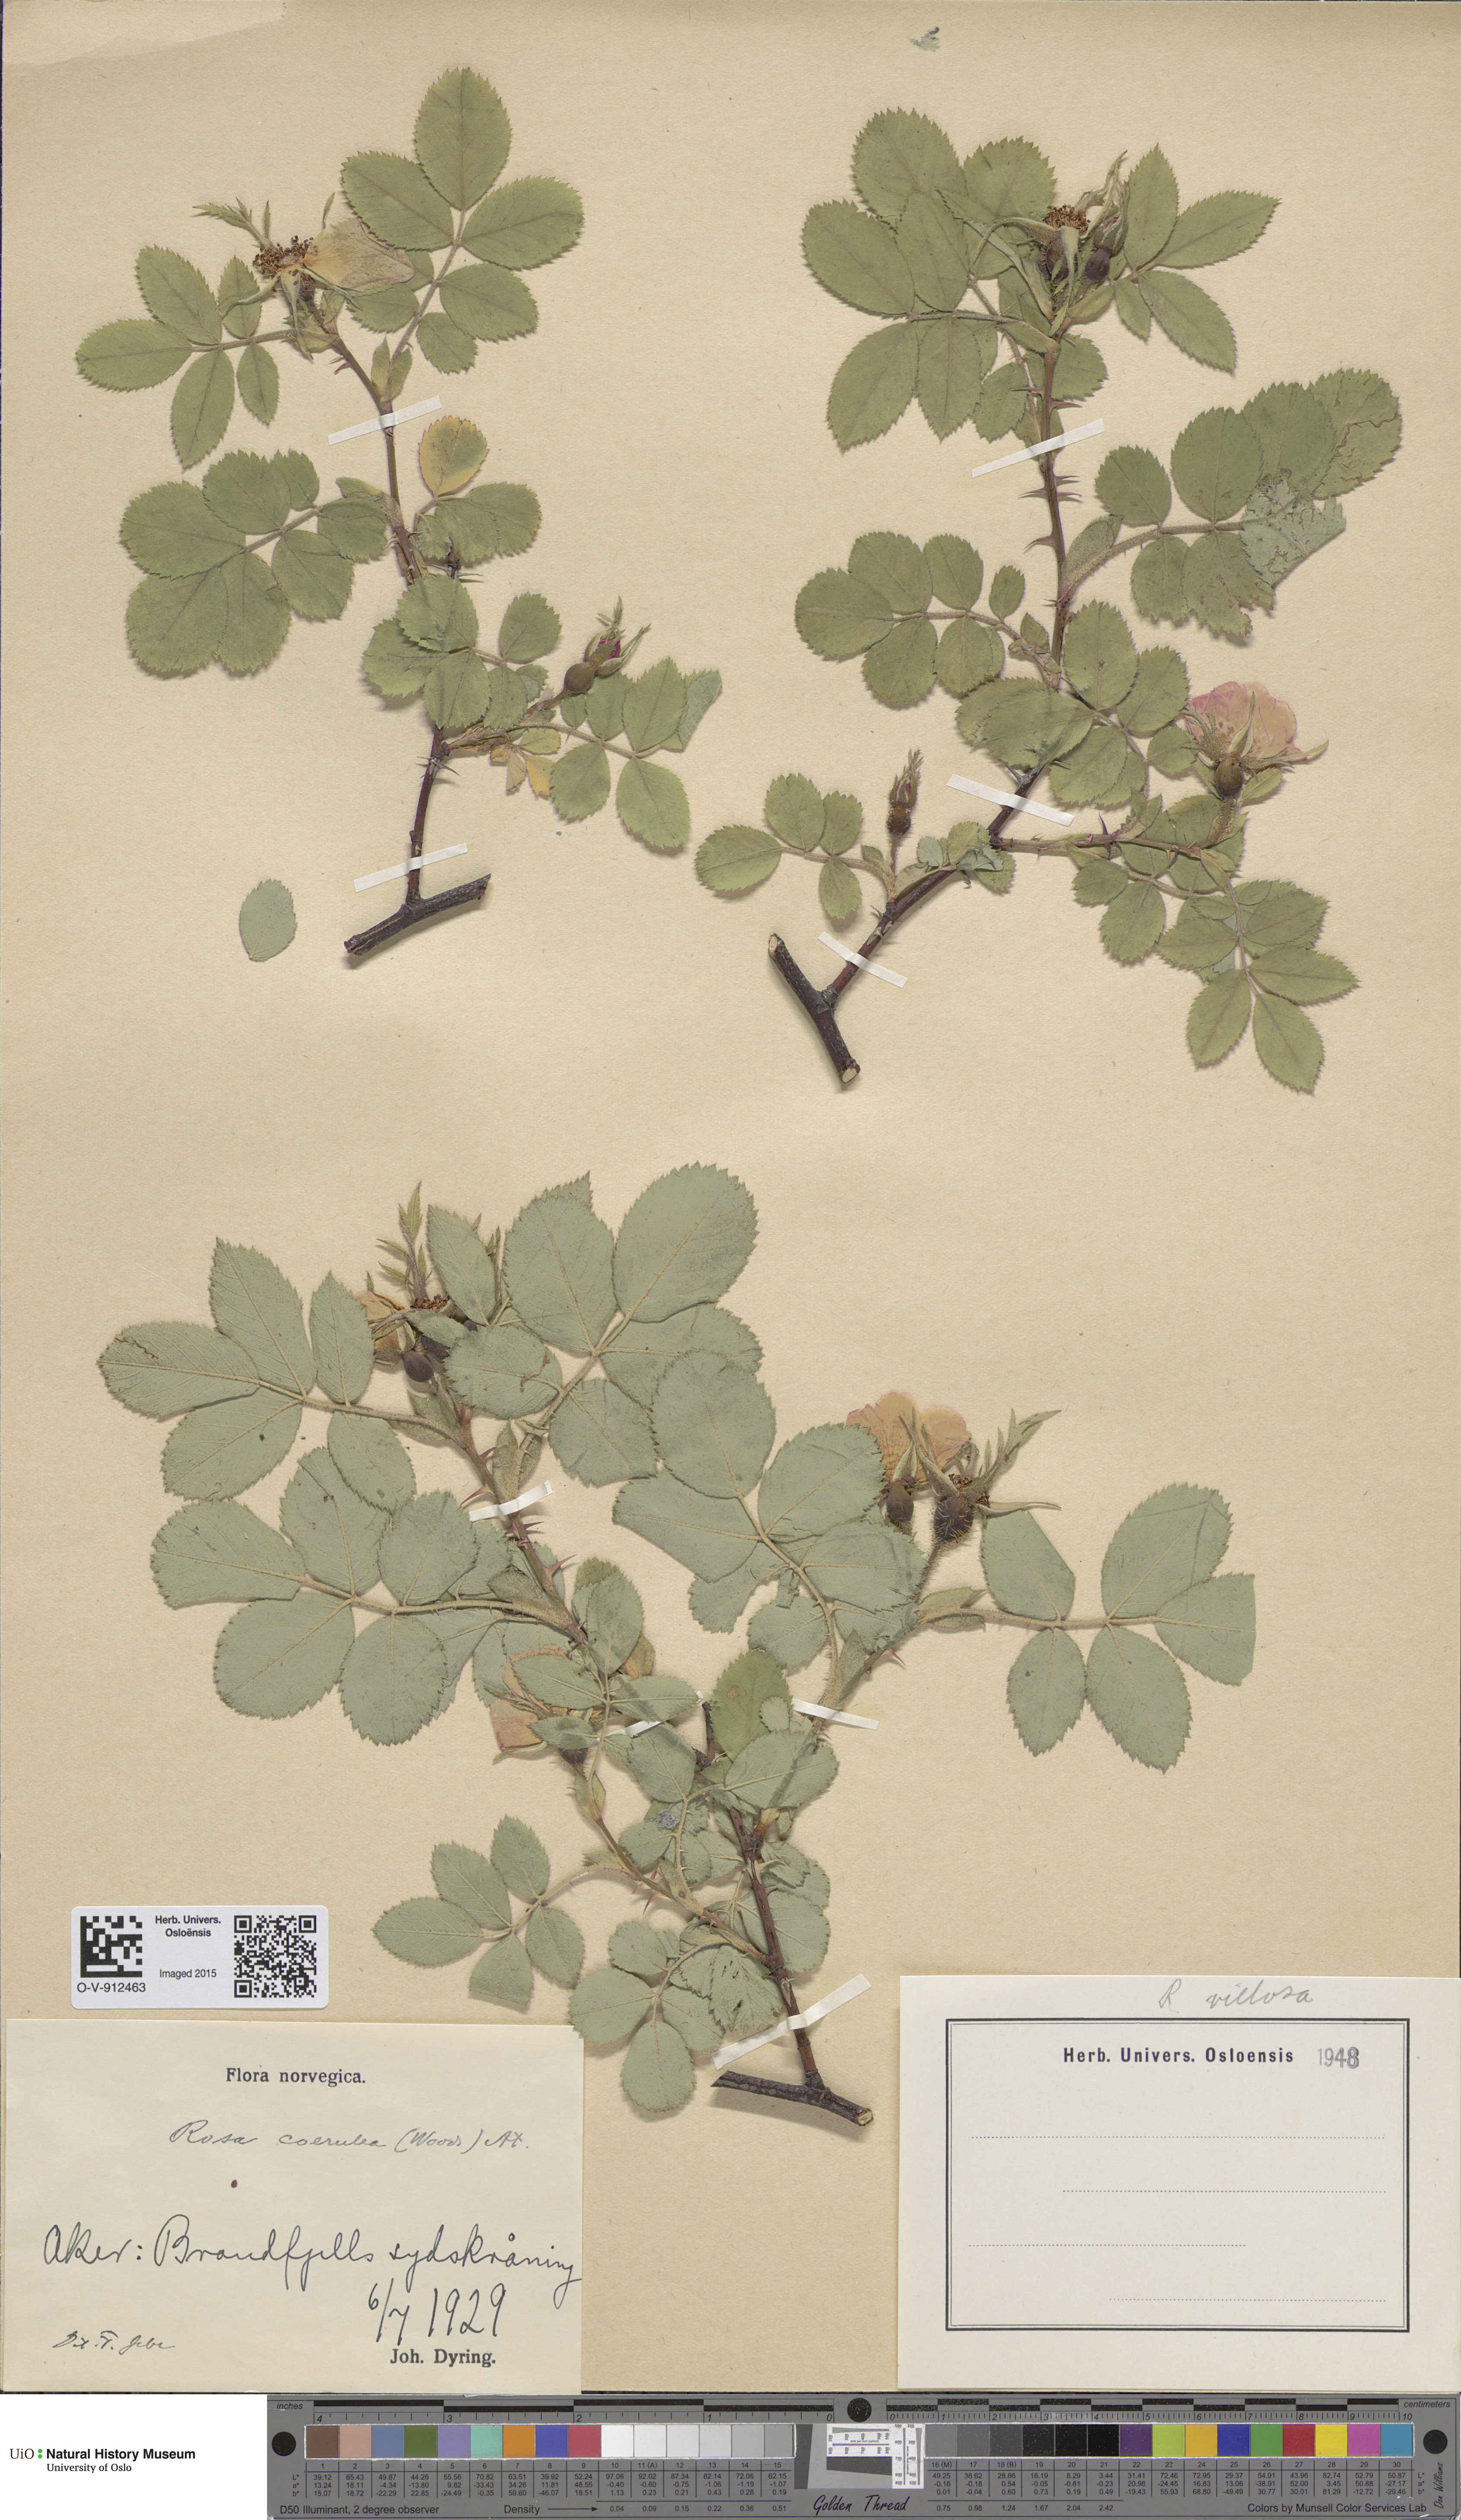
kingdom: Plantae
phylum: Tracheophyta
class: Magnoliopsida
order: Rosales
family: Rosaceae
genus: Rosa
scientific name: Rosa mollis
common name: Rose
